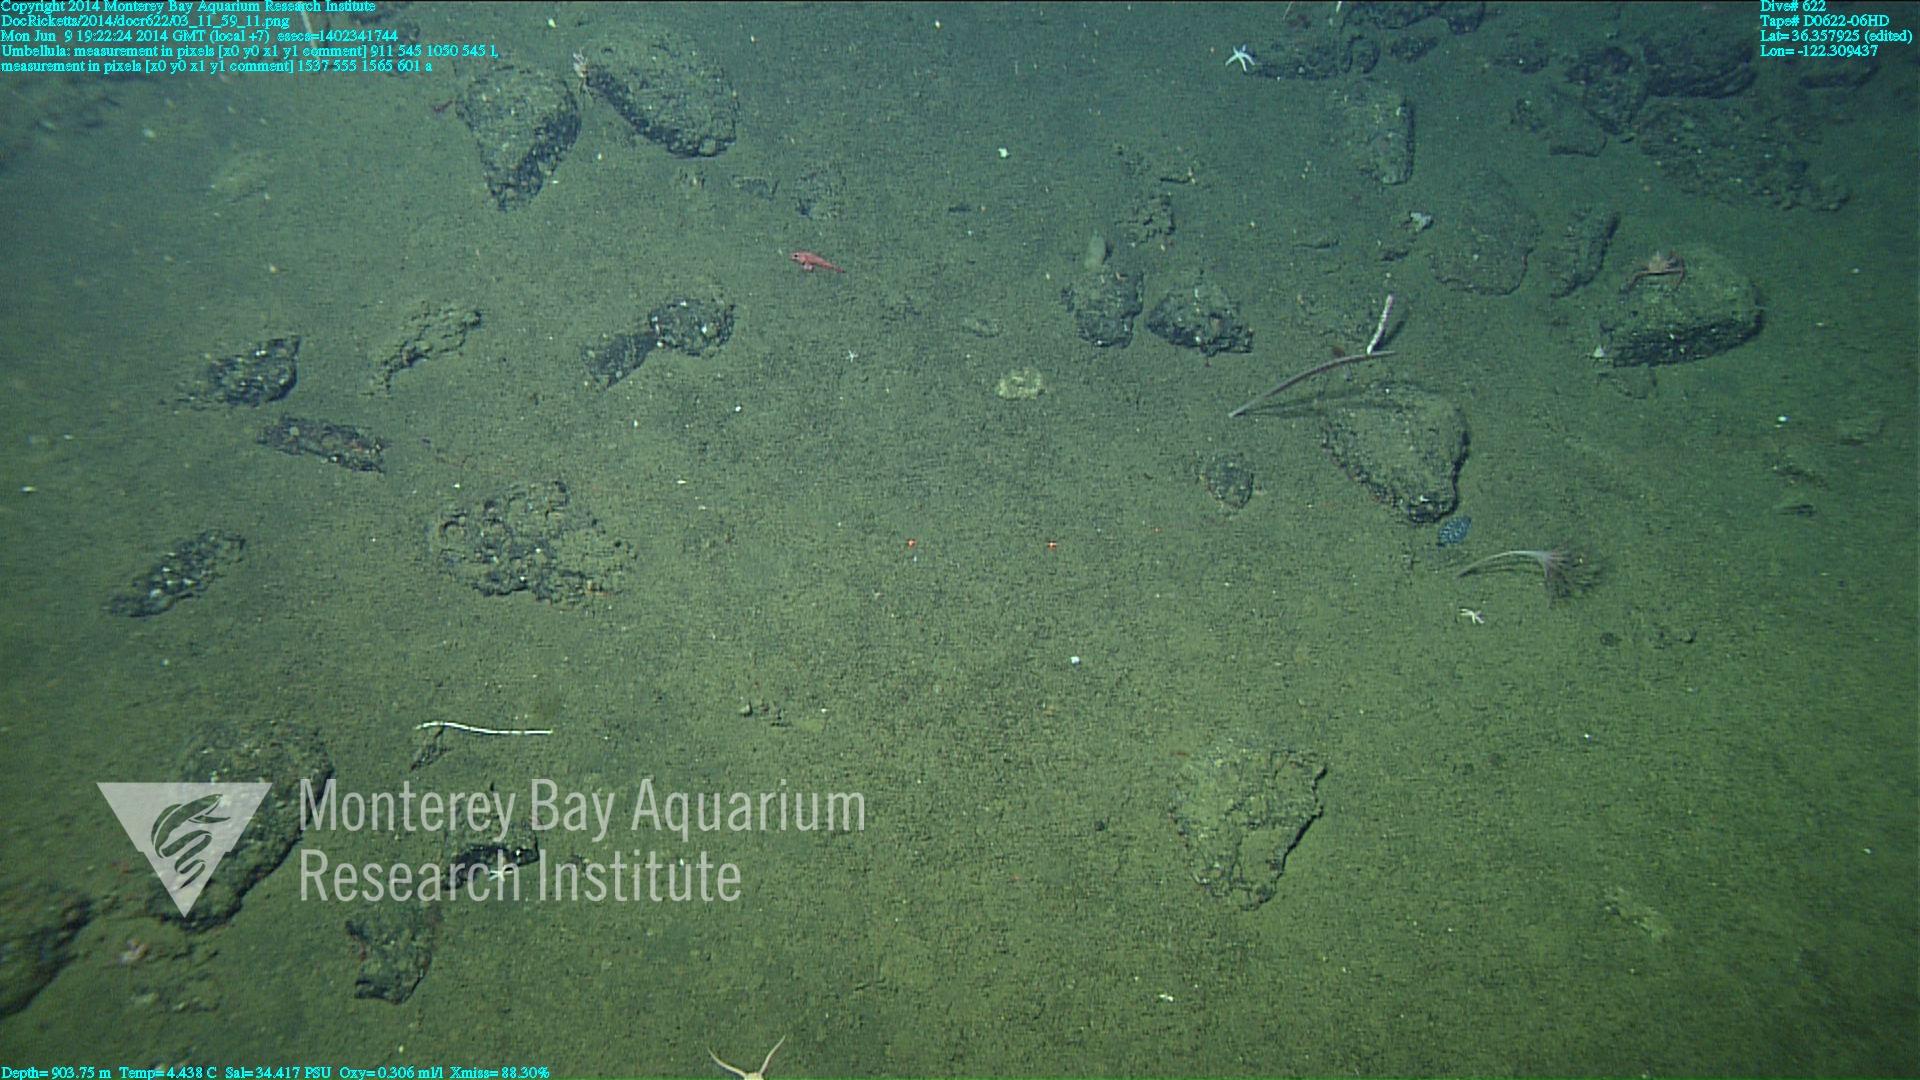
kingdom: Animalia
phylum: Cnidaria
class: Anthozoa
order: Scleralcyonacea
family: Umbellulidae
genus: Umbellula
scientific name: Umbellula lindahli
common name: Lindahl's droopy sea pen
